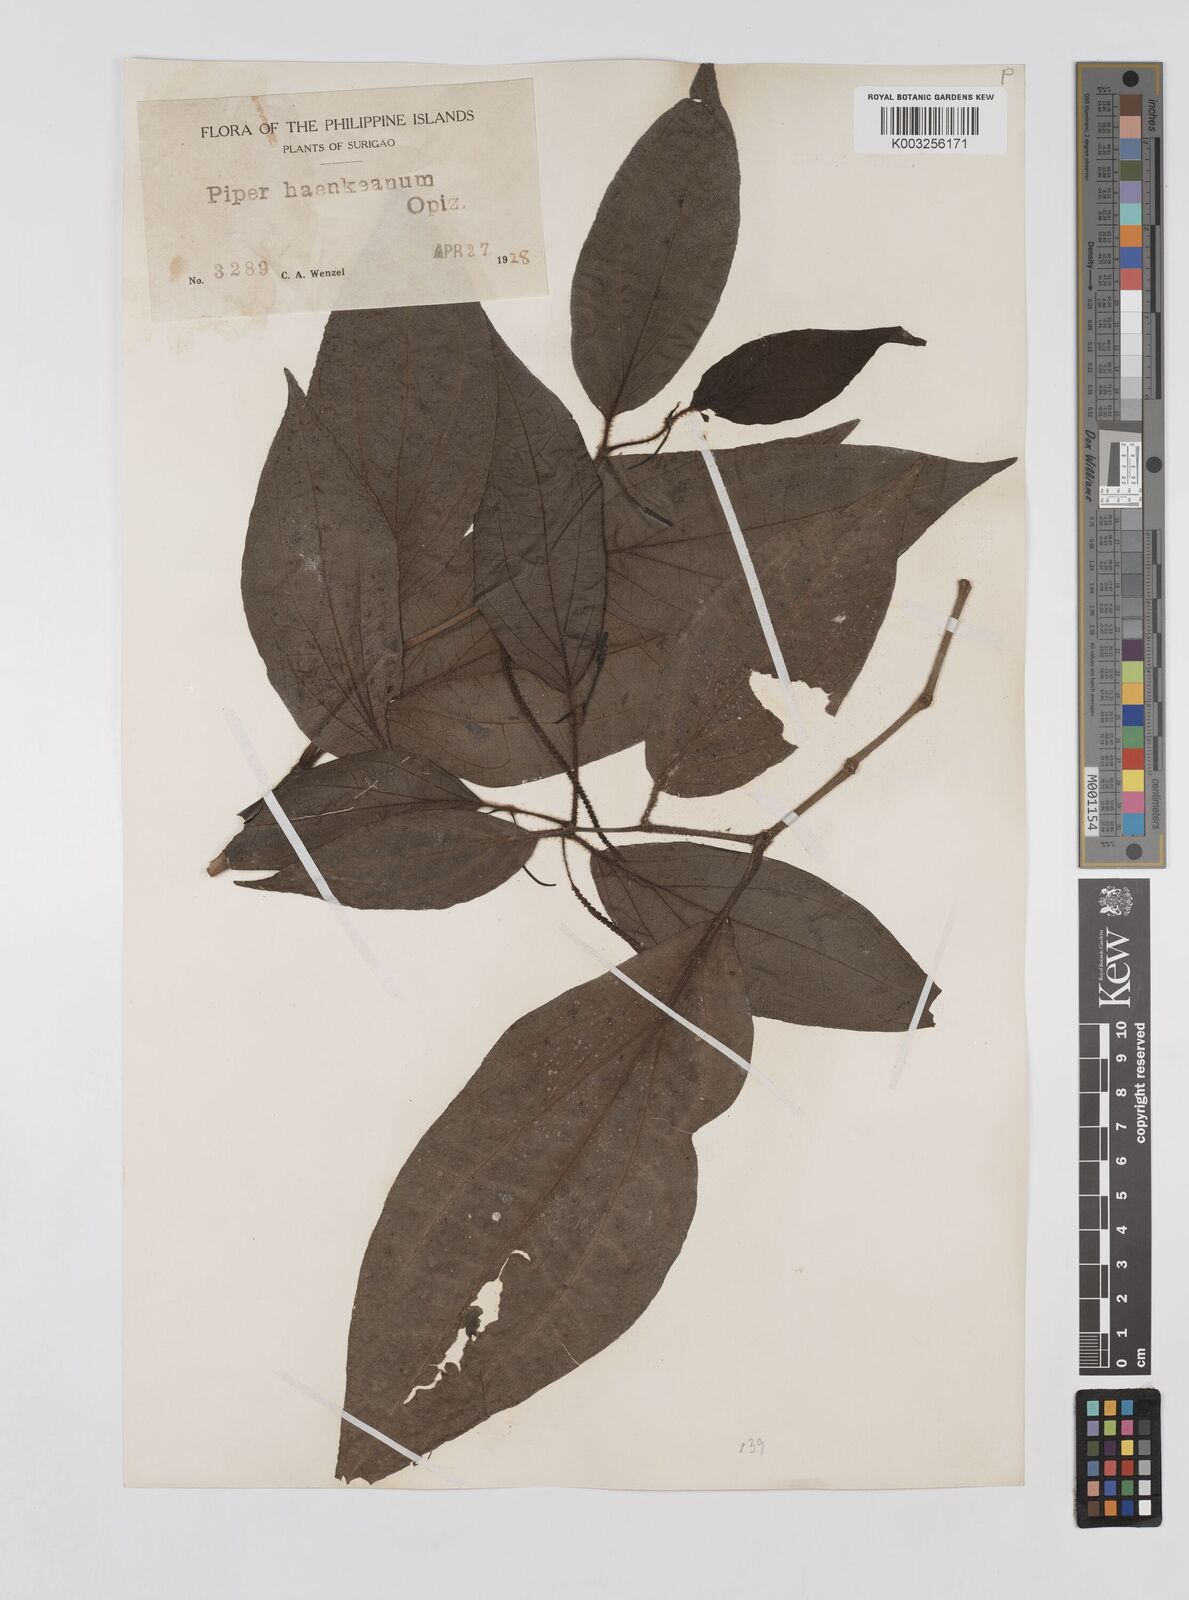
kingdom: Plantae
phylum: Tracheophyta
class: Magnoliopsida
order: Piperales
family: Piperaceae
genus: Piper
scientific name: Piper lanatum
